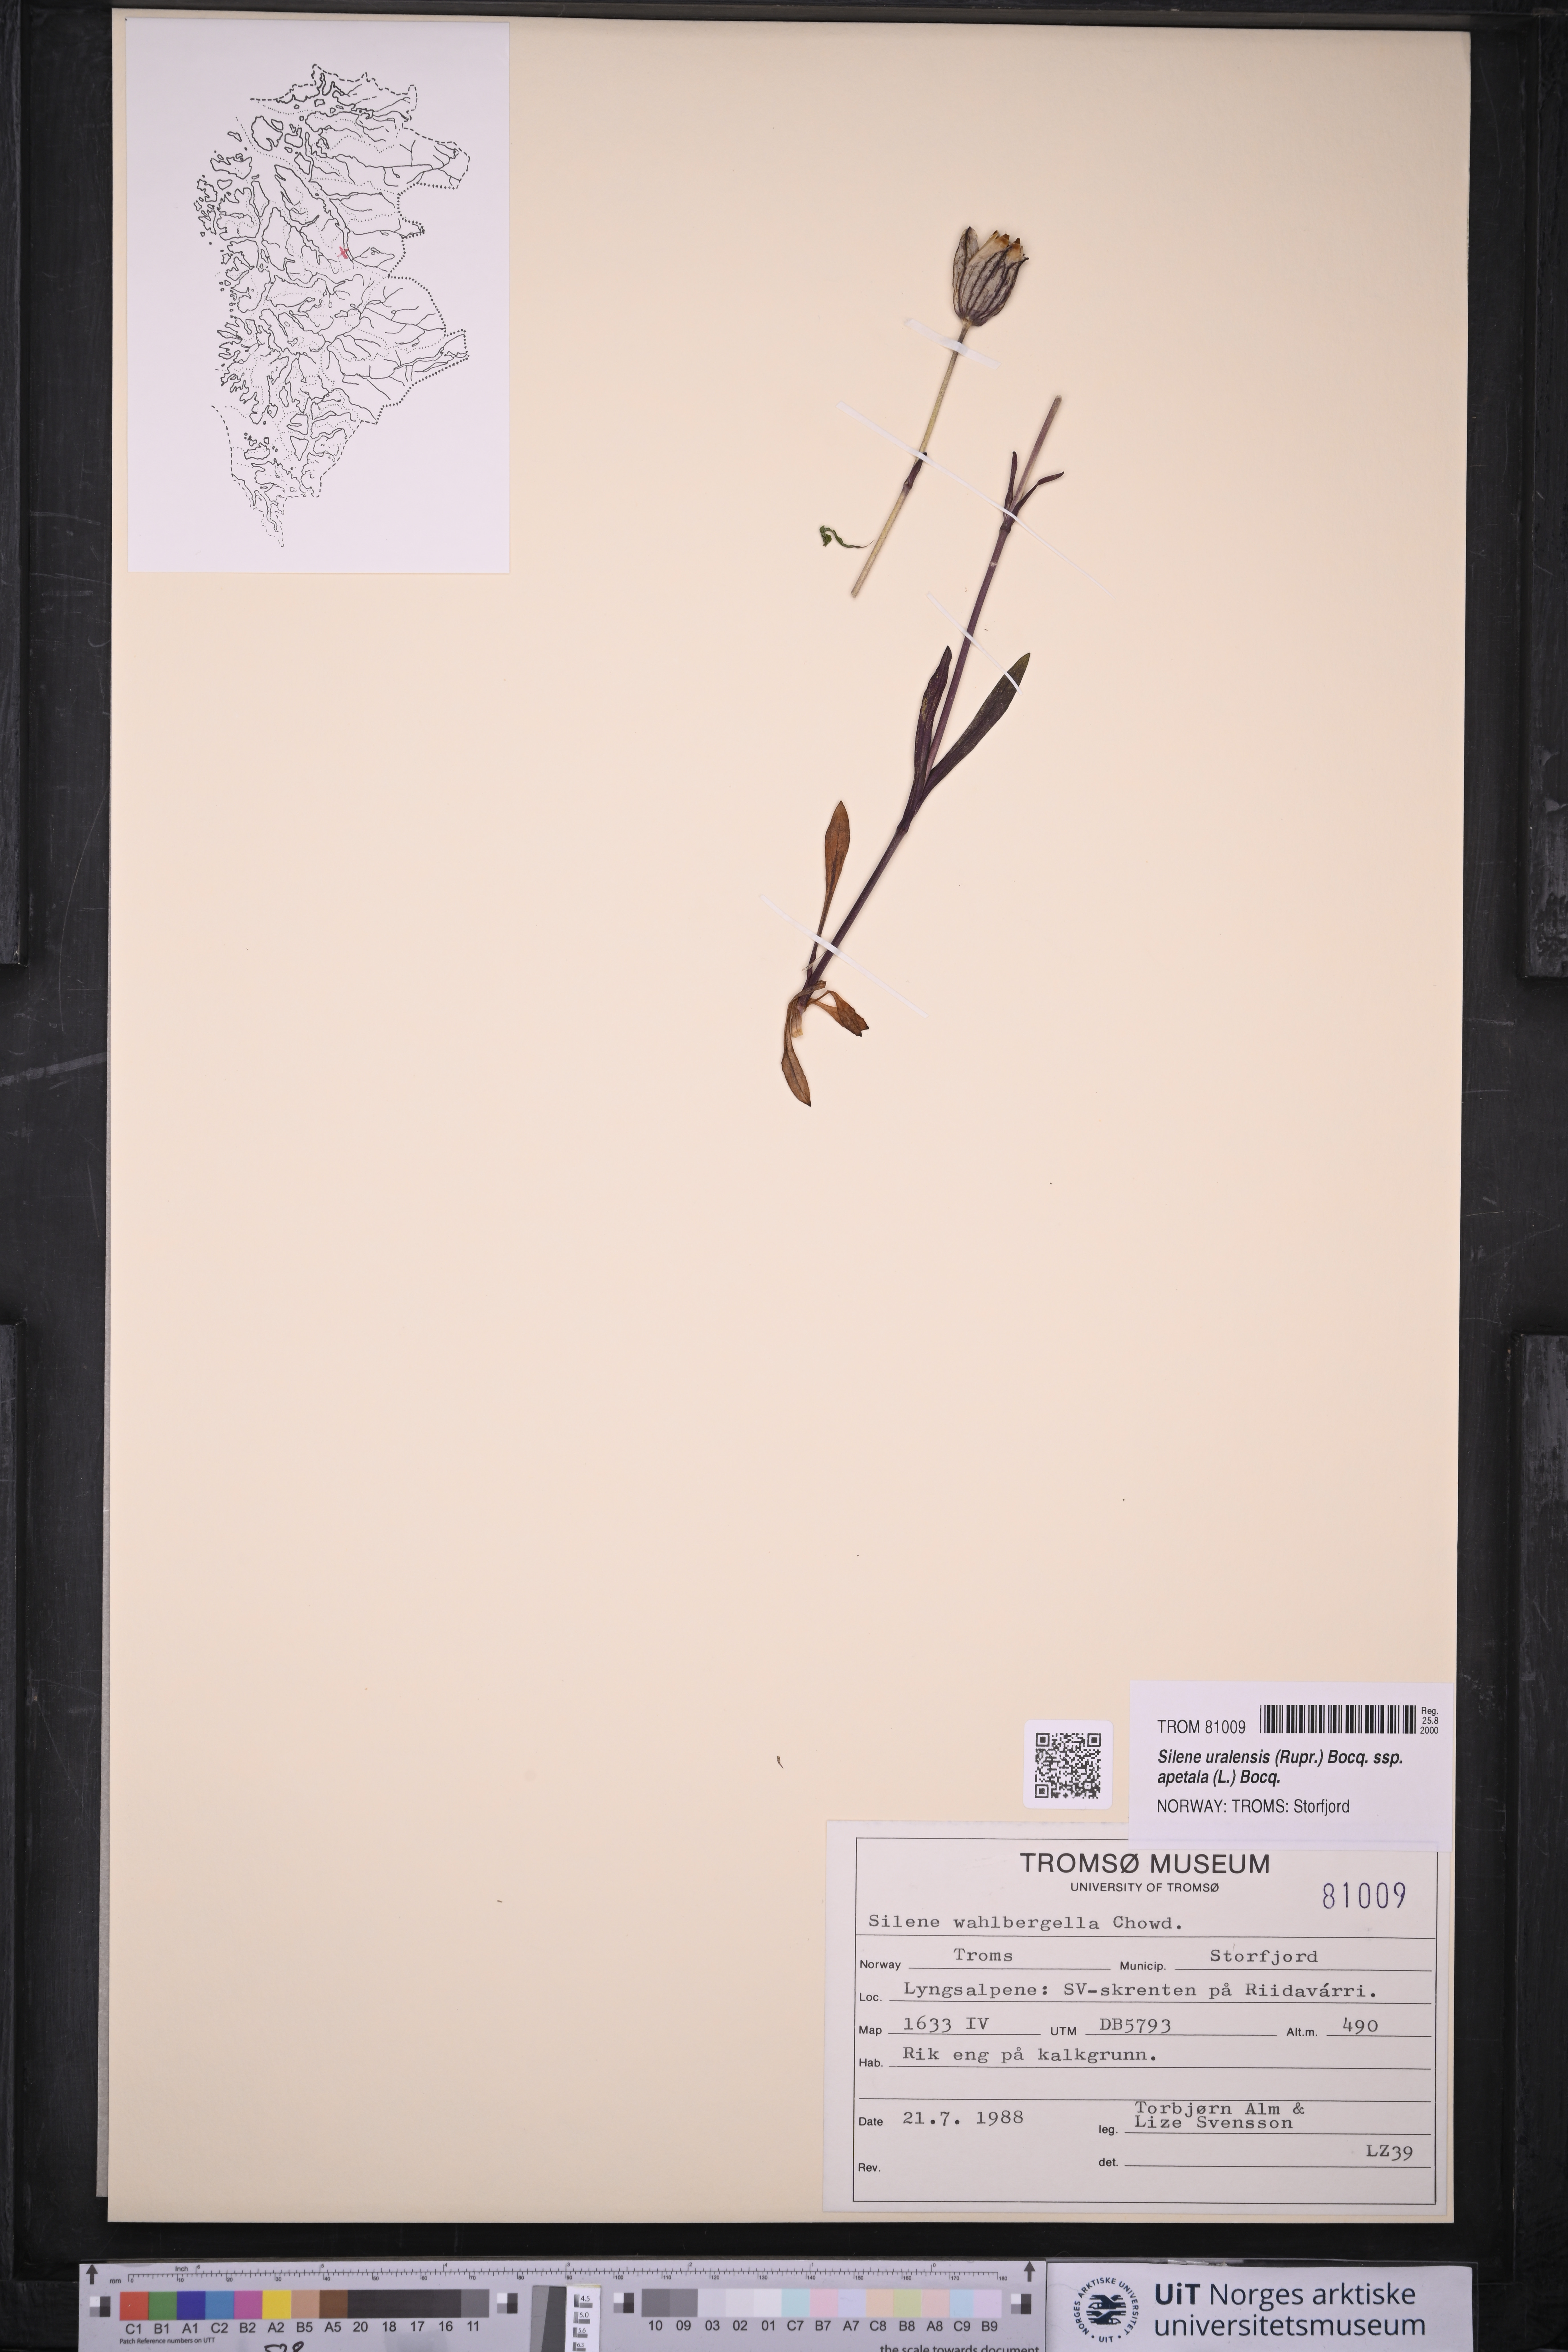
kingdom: Plantae
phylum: Tracheophyta
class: Magnoliopsida
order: Caryophyllales
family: Caryophyllaceae
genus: Silene
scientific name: Silene wahlbergella
